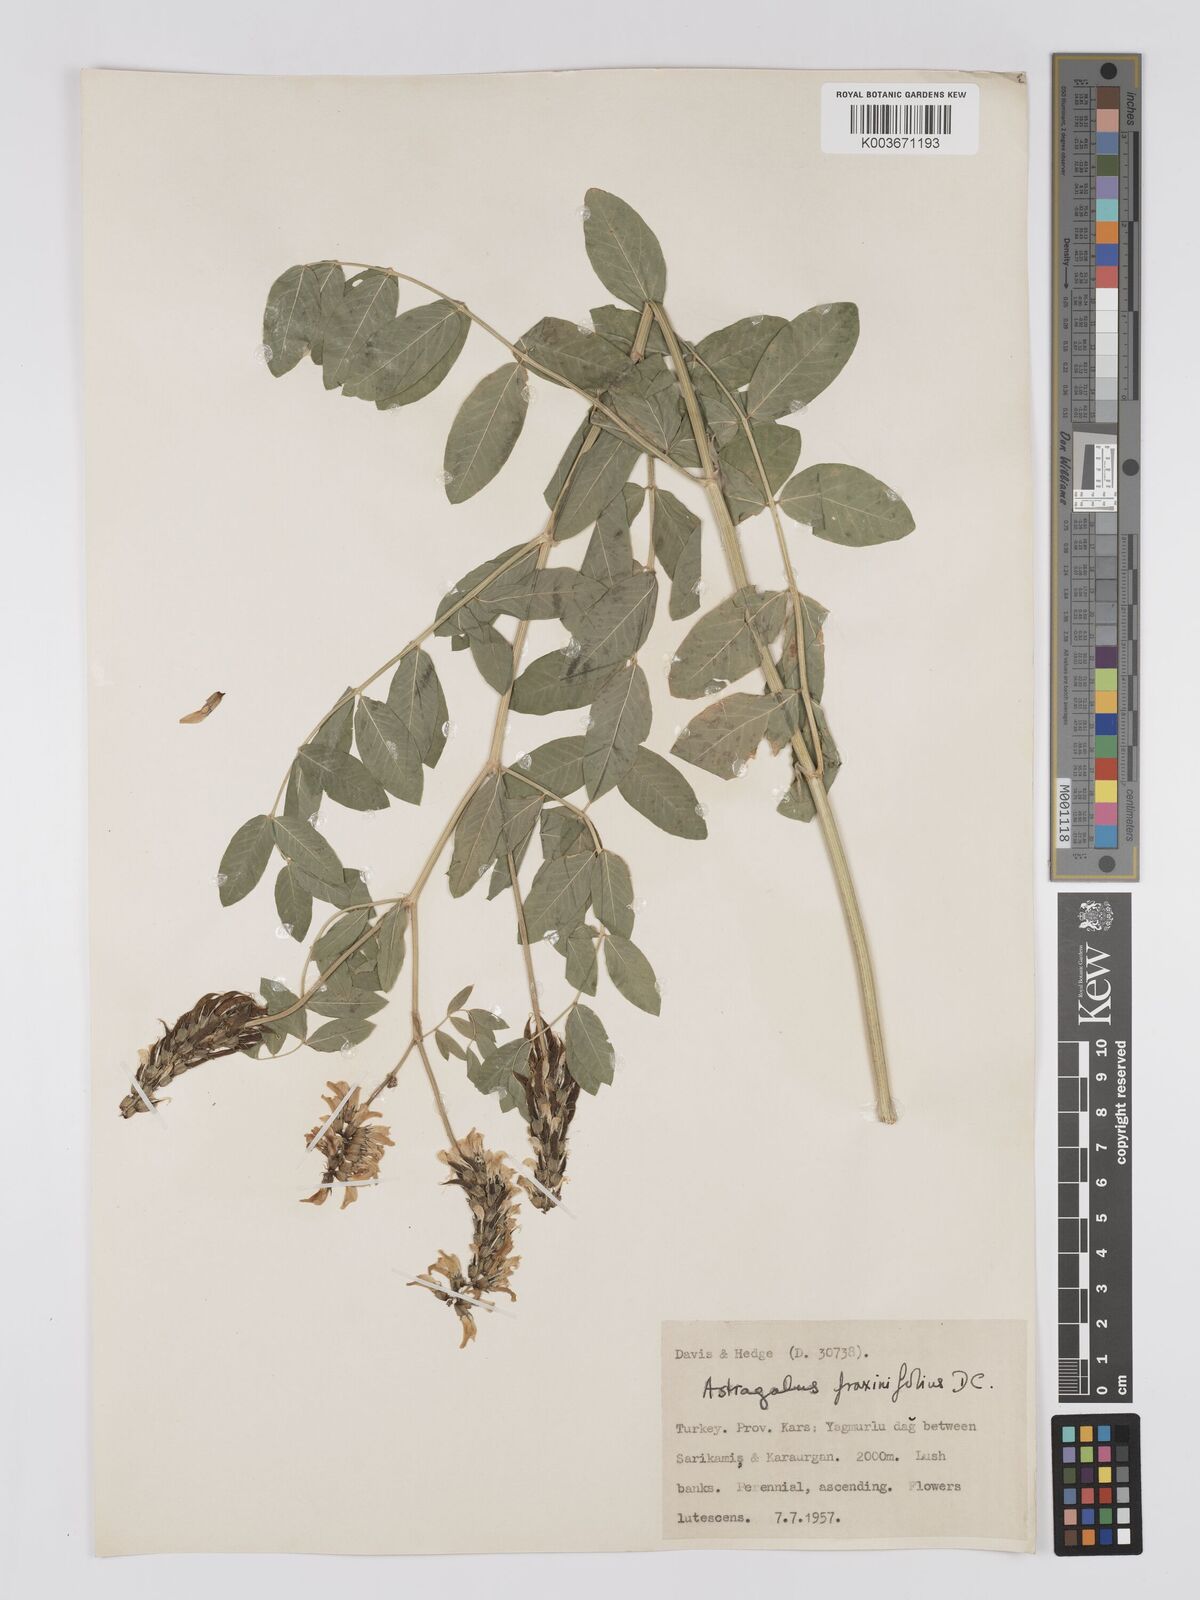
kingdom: Plantae
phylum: Tracheophyta
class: Magnoliopsida
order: Fabales
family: Fabaceae
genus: Astragalus
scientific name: Astragalus fraxinifolius
